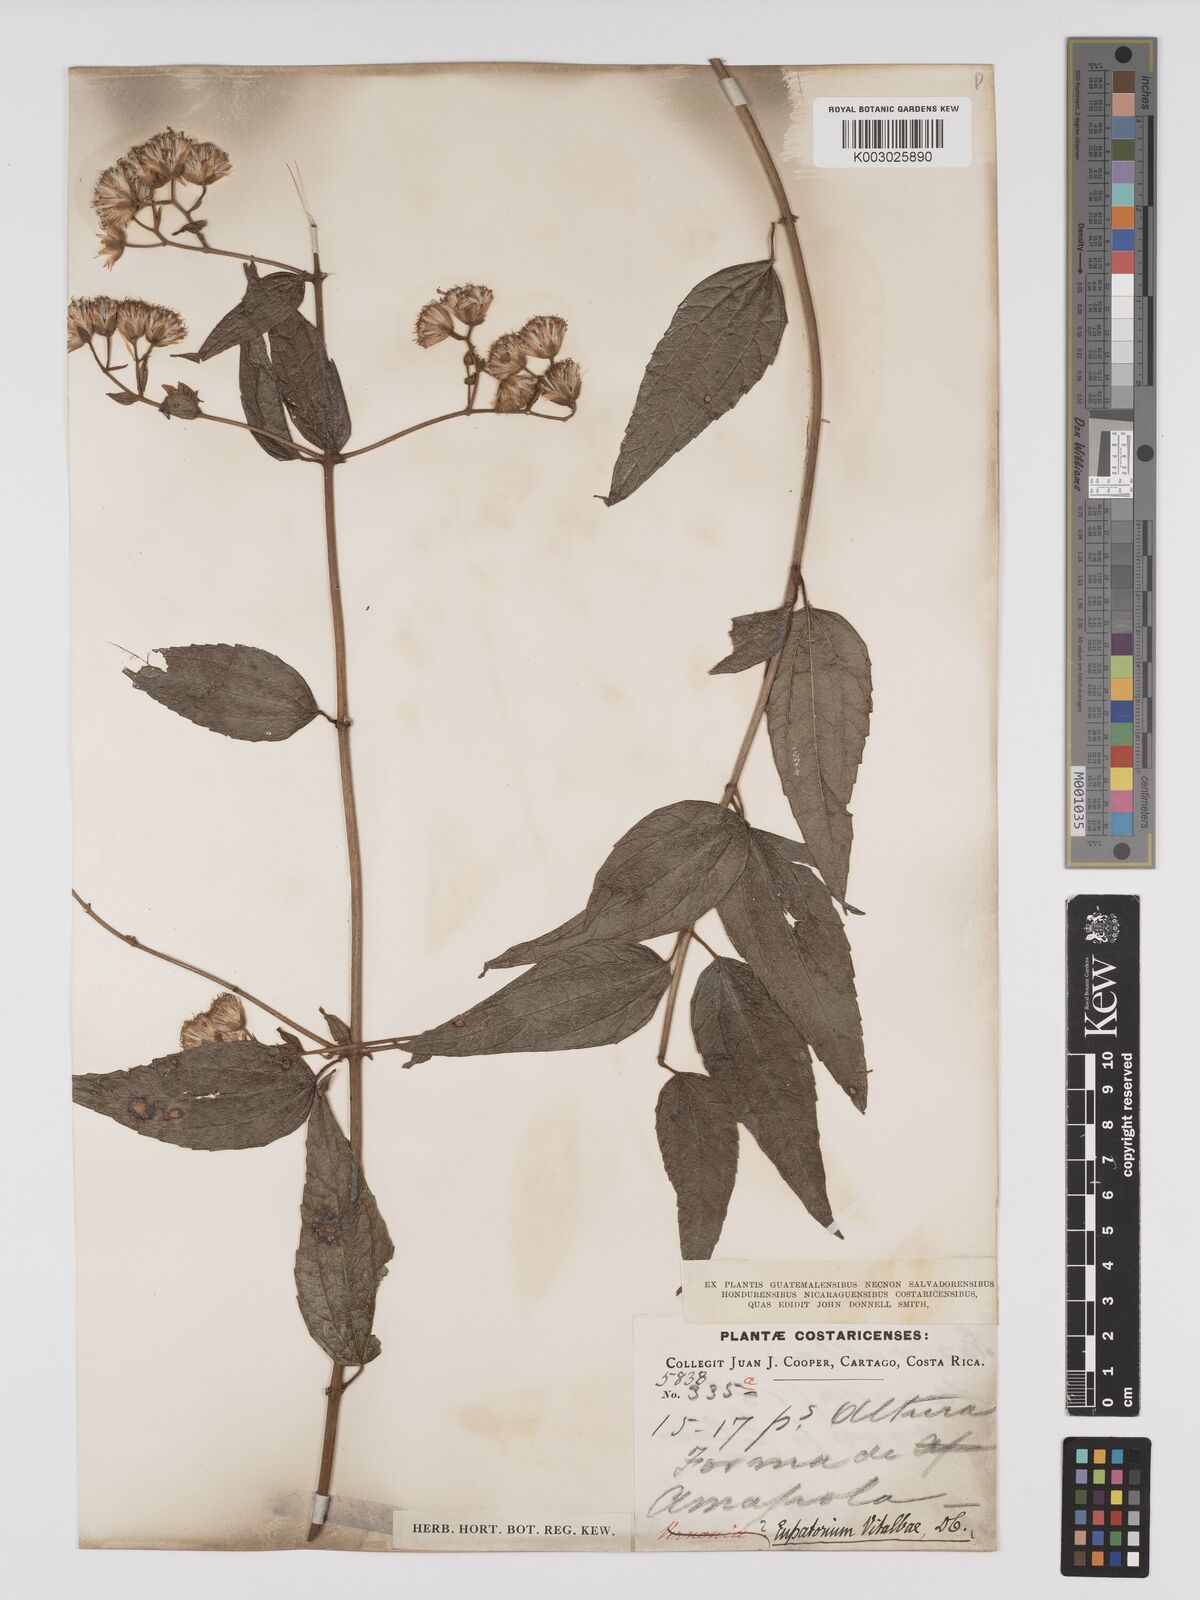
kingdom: Plantae
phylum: Tracheophyta
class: Magnoliopsida
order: Asterales
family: Asteraceae
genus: Heterocondylus
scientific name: Heterocondylus vitalbae
